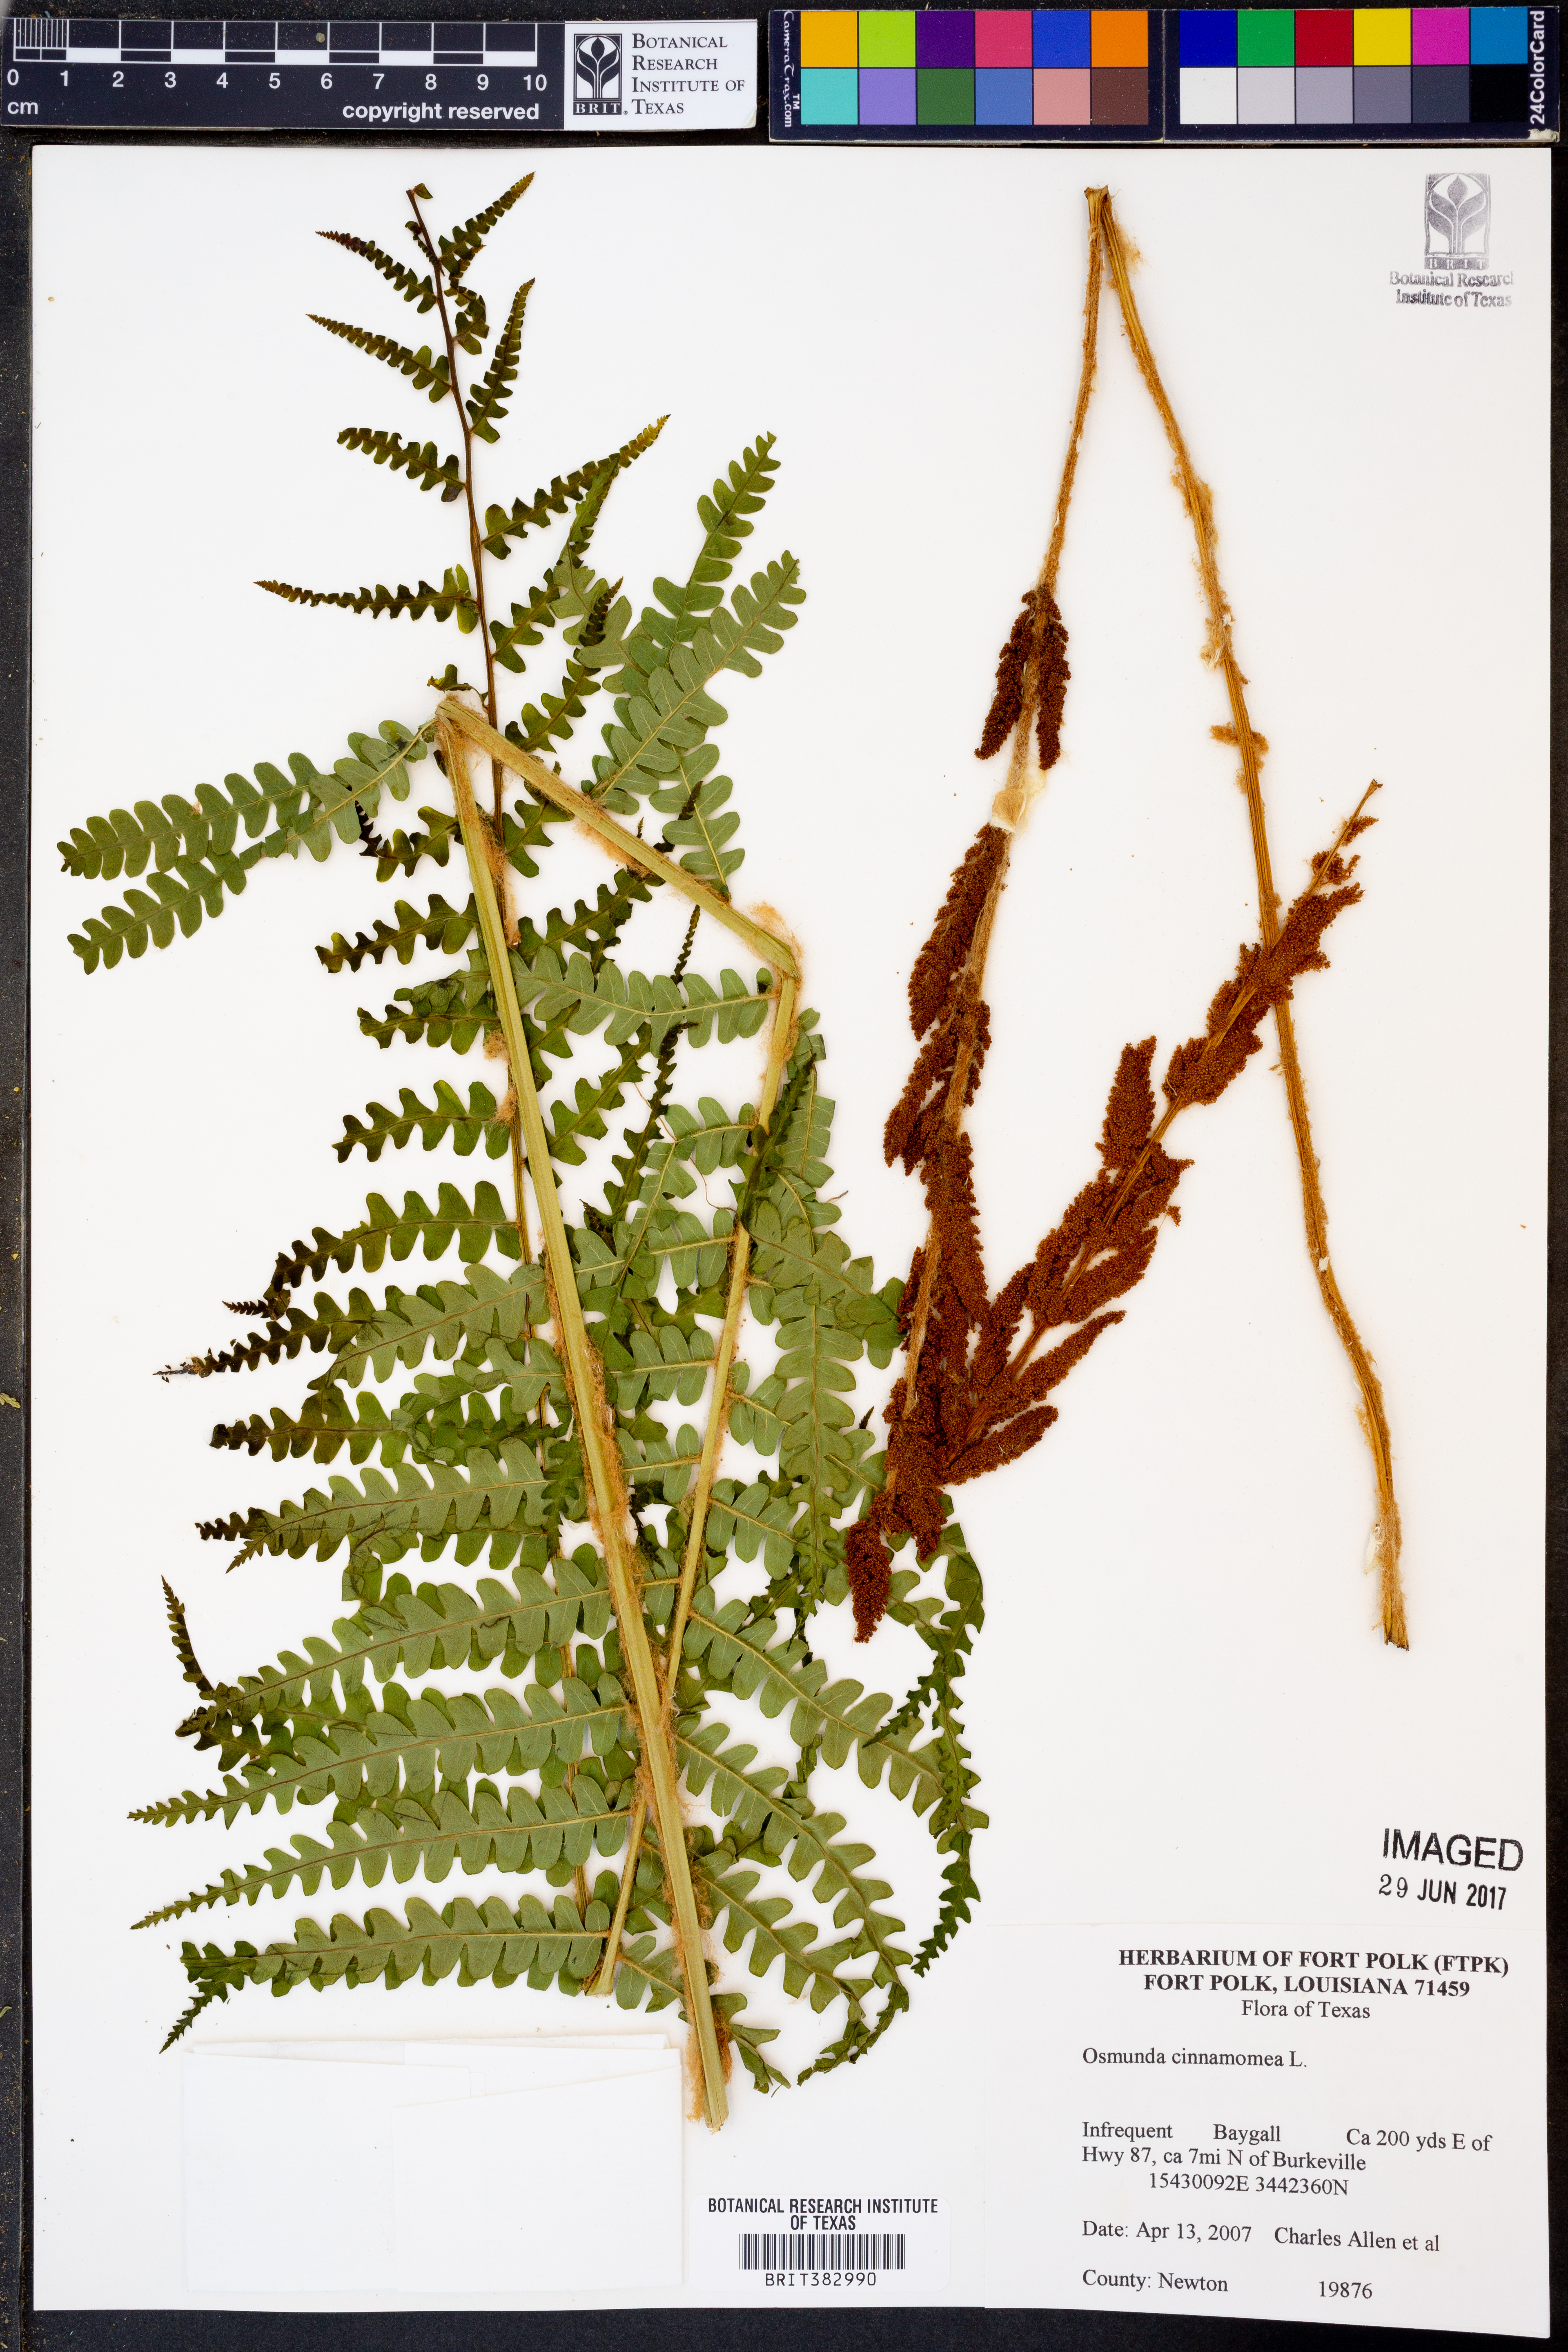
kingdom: Plantae
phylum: Tracheophyta
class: Polypodiopsida
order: Osmundales
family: Osmundaceae
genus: Osmundastrum
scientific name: Osmundastrum cinnamomeum
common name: Cinnamon fern
